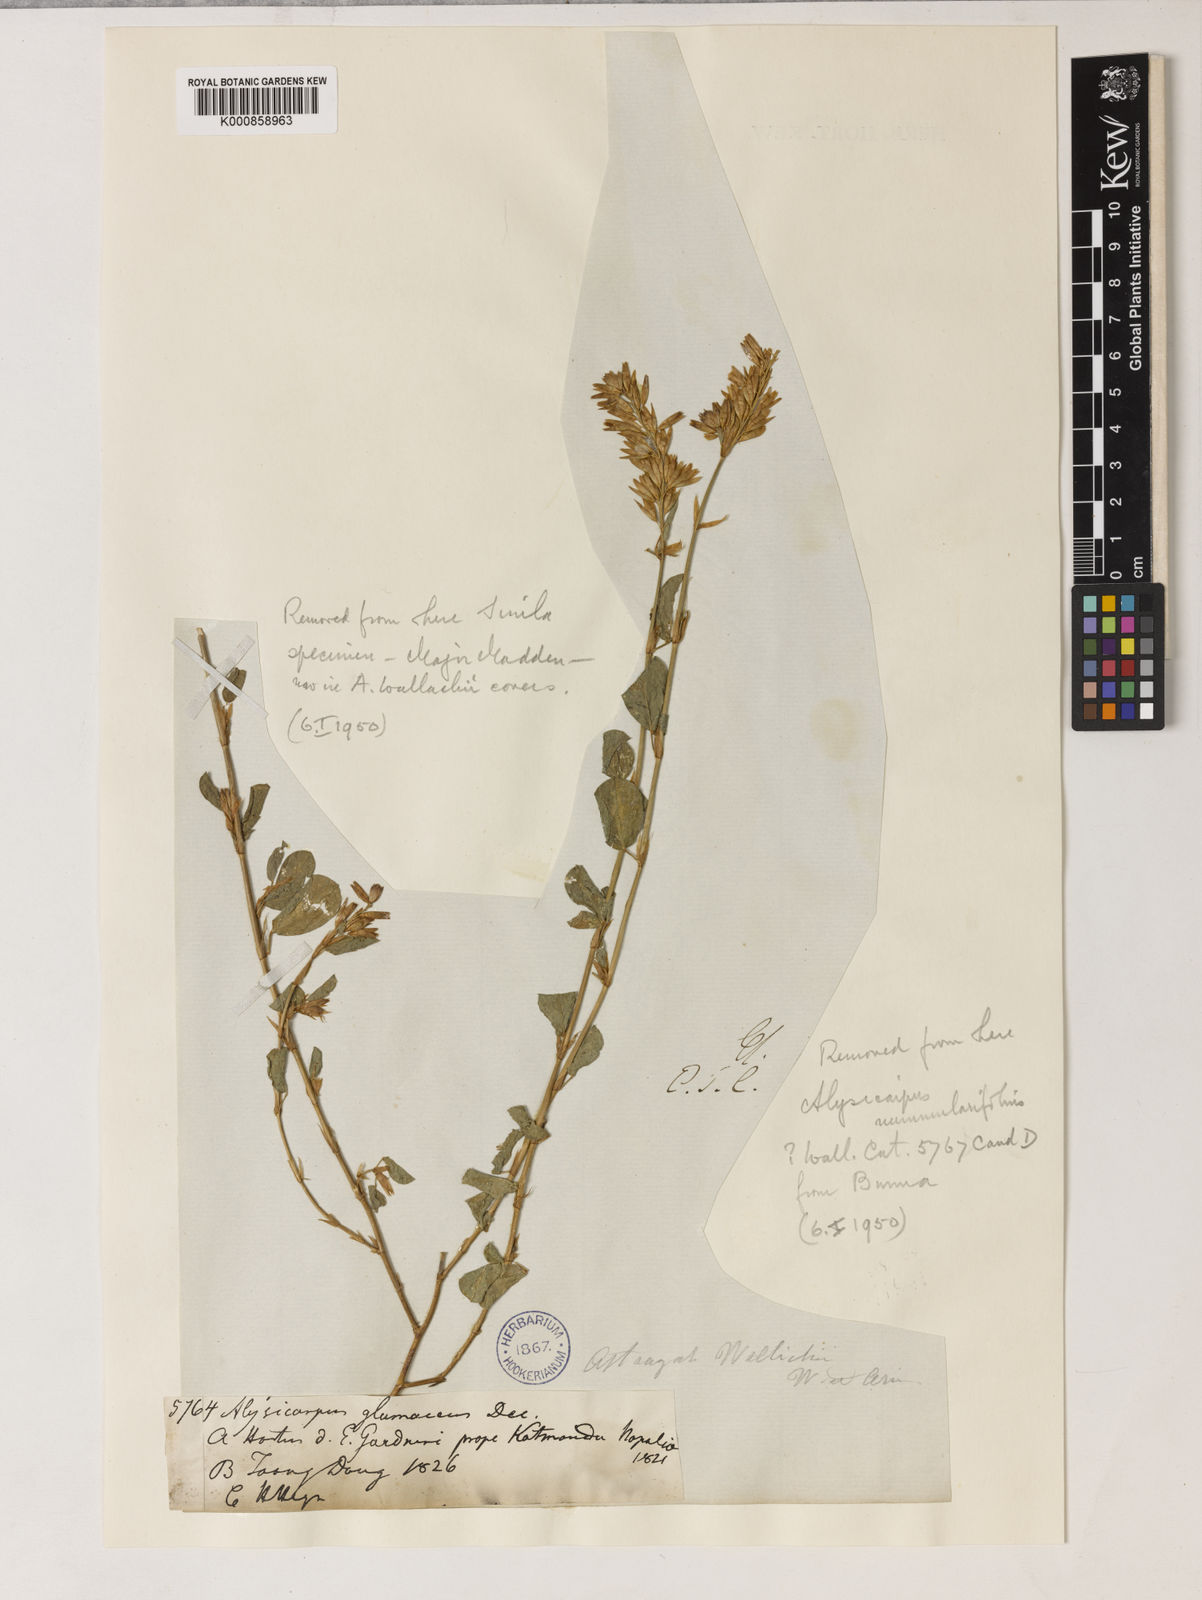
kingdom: Plantae
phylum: Tracheophyta
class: Magnoliopsida
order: Fabales
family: Fabaceae
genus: Alysicarpus
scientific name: Alysicarpus rugosus
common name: Red moneywort
